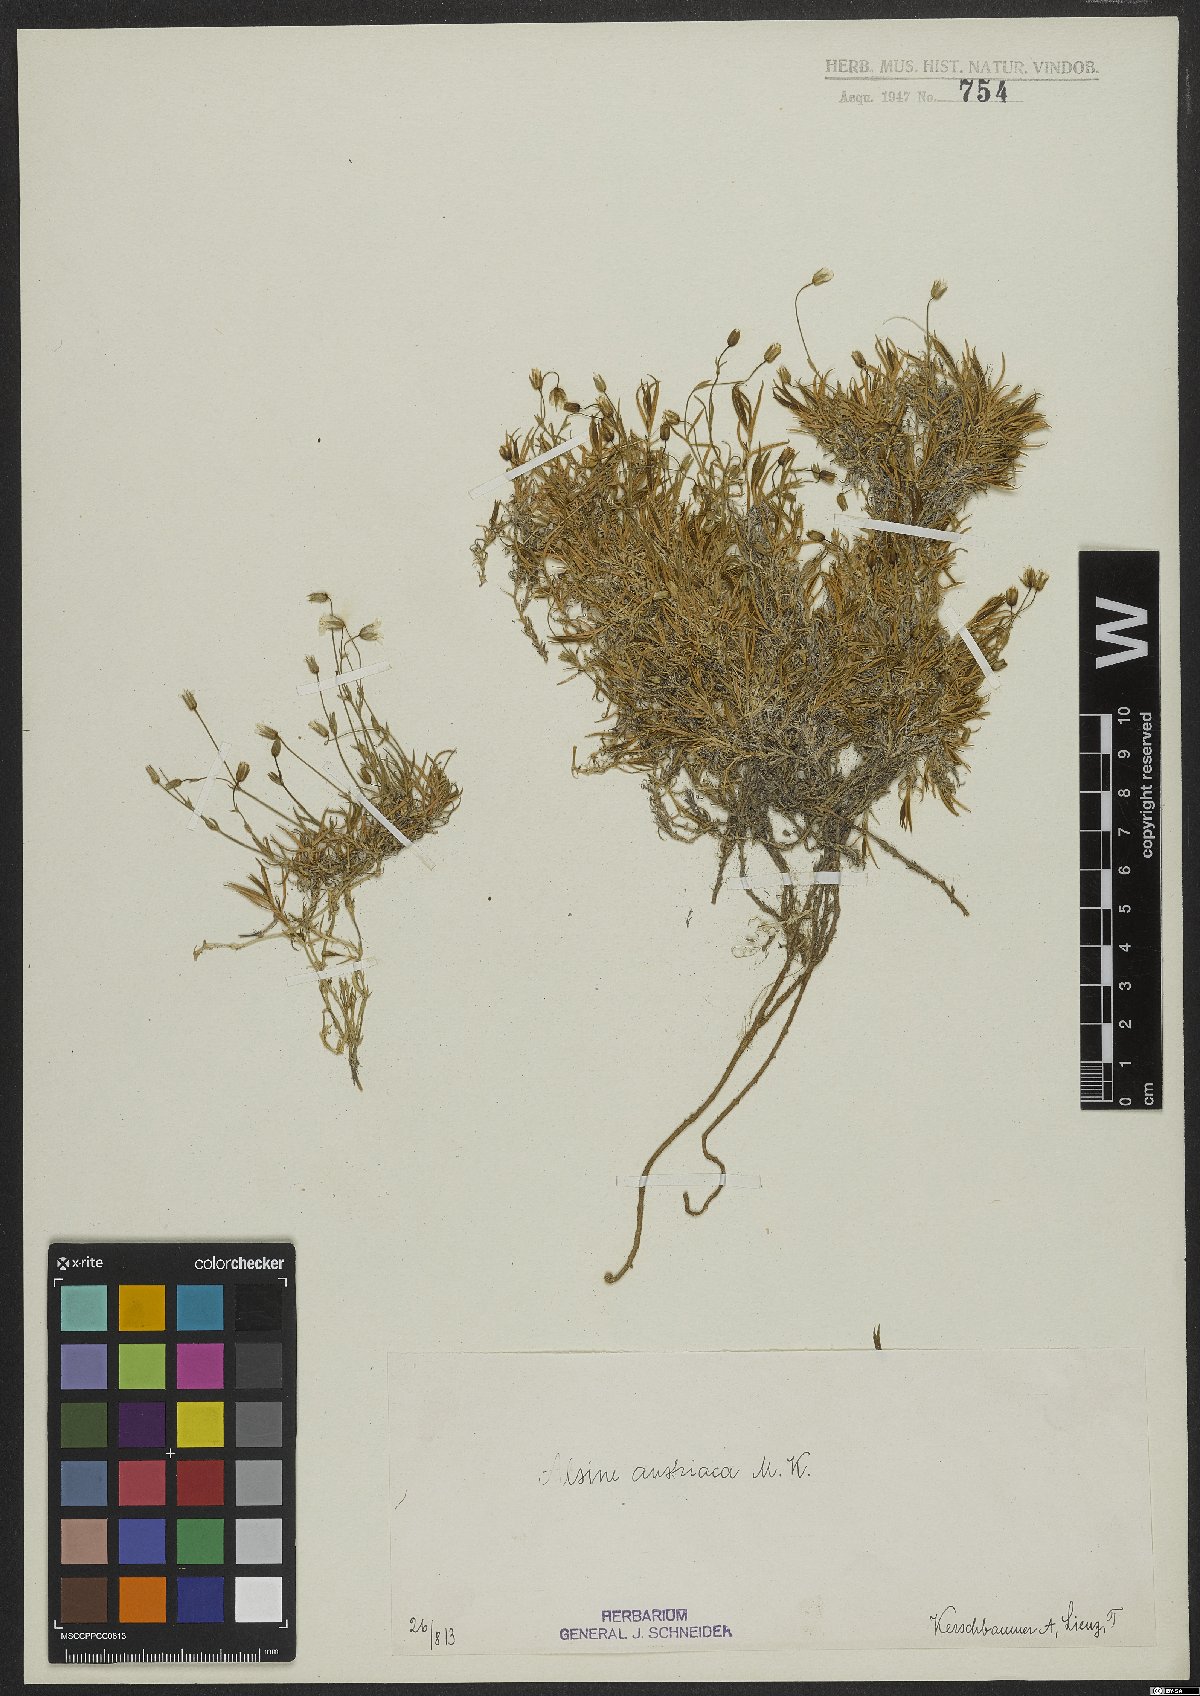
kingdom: Plantae
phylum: Tracheophyta
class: Magnoliopsida
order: Caryophyllales
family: Caryophyllaceae
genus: Sabulina
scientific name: Sabulina austriaca
